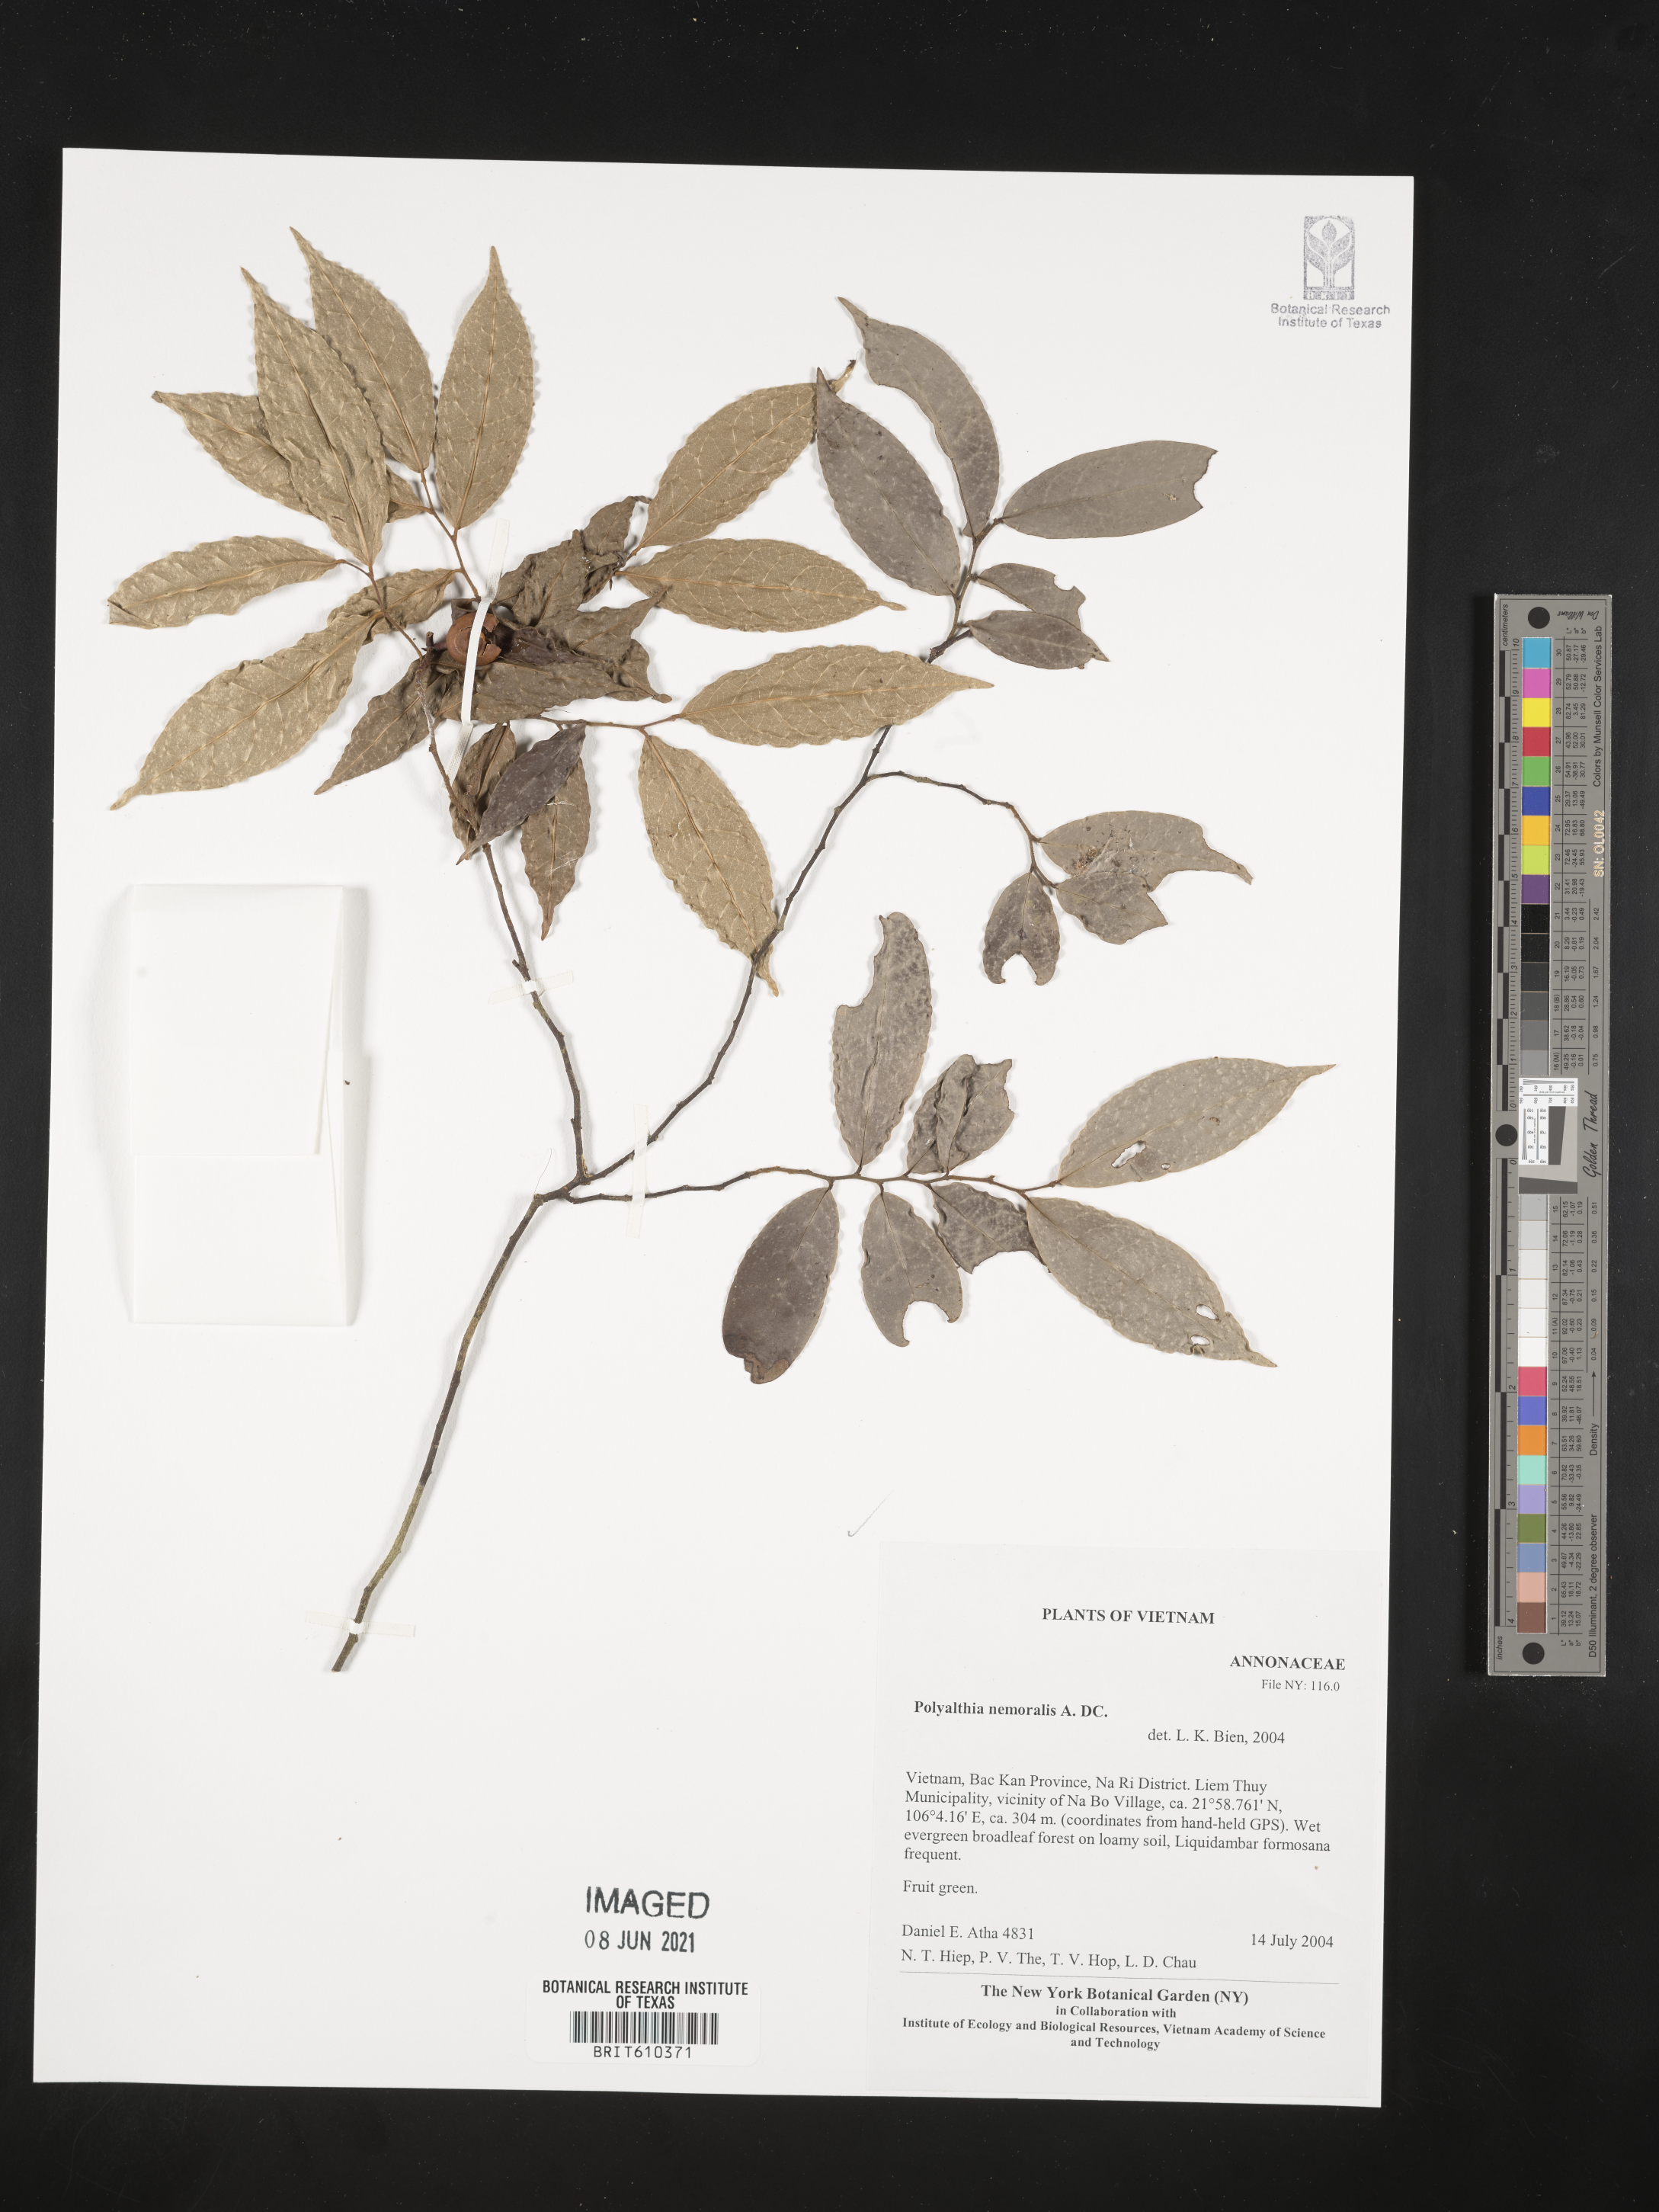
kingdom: Plantae
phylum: Tracheophyta
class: Magnoliopsida
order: Magnoliales
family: Annonaceae
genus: Trivalvaria
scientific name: Trivalvaria costata
